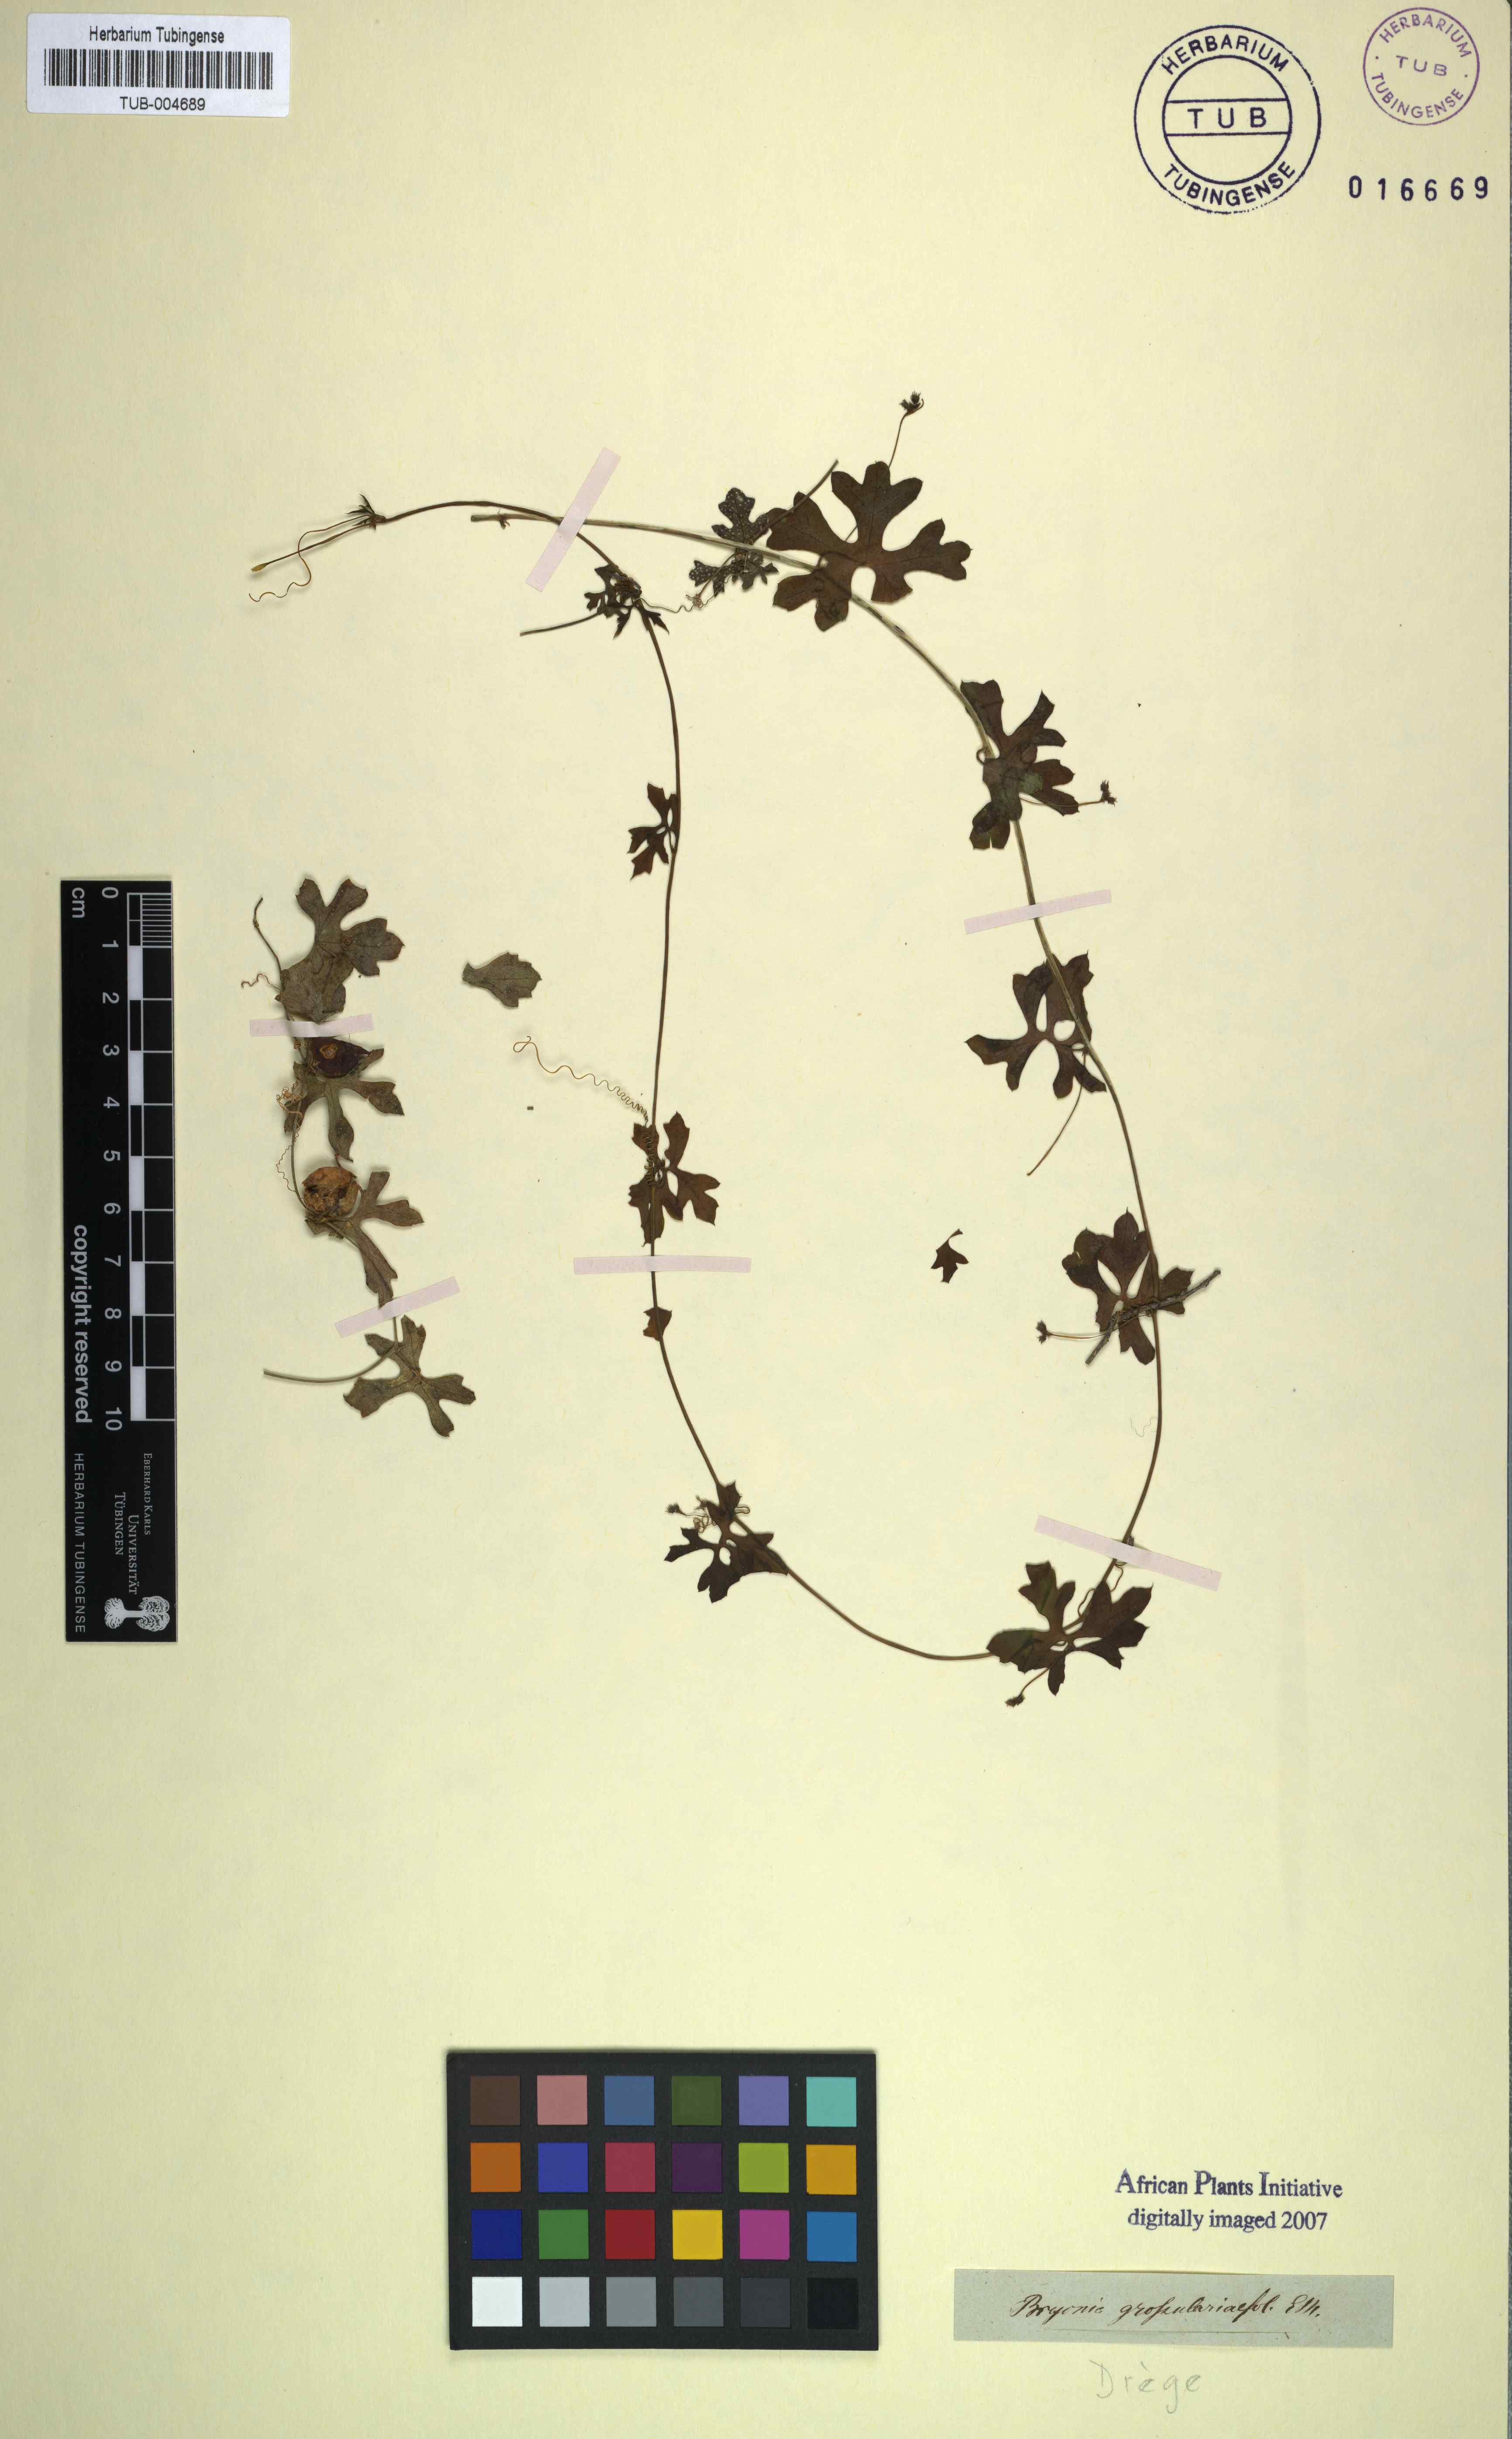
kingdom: Plantae
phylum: Tracheophyta
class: Magnoliopsida
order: Cucurbitales
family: Cucurbitaceae
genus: Kedrostis
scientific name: Kedrostis africana
